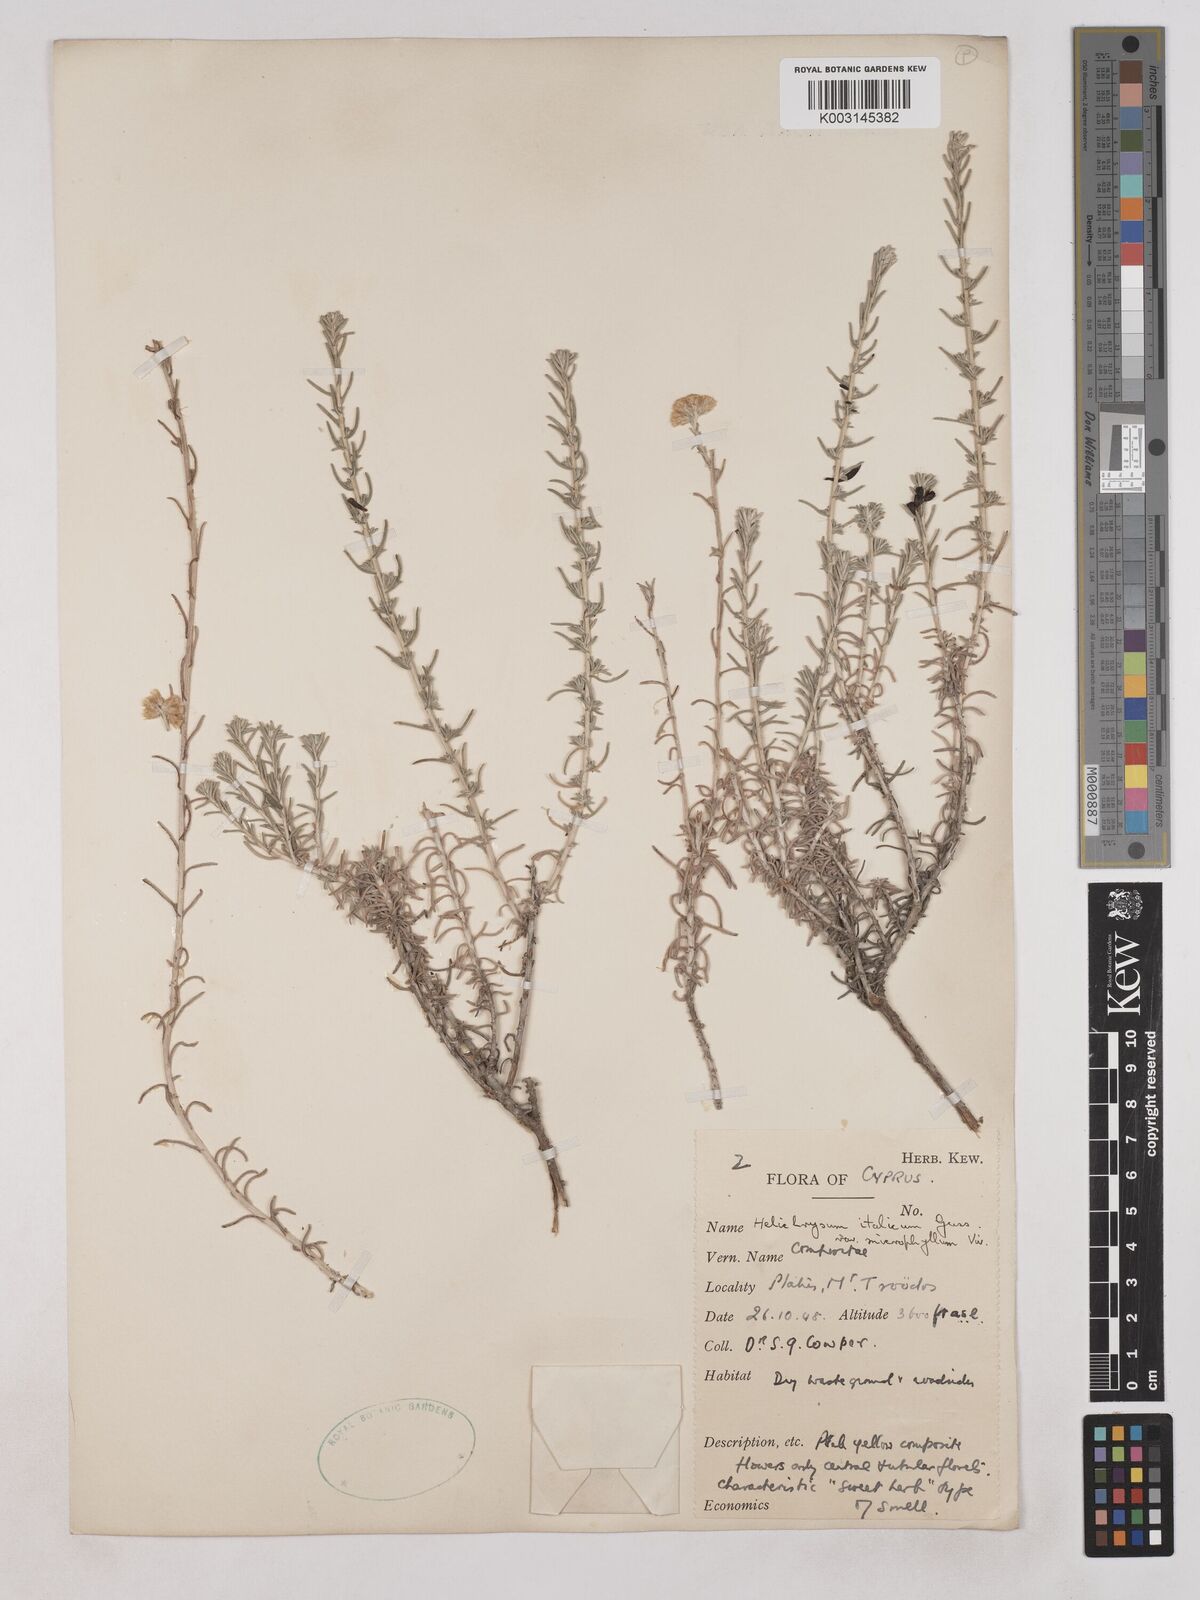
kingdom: Plantae
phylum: Tracheophyta
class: Magnoliopsida
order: Asterales
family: Asteraceae
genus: Helichrysum
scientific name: Helichrysum italicum
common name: Curryplant
